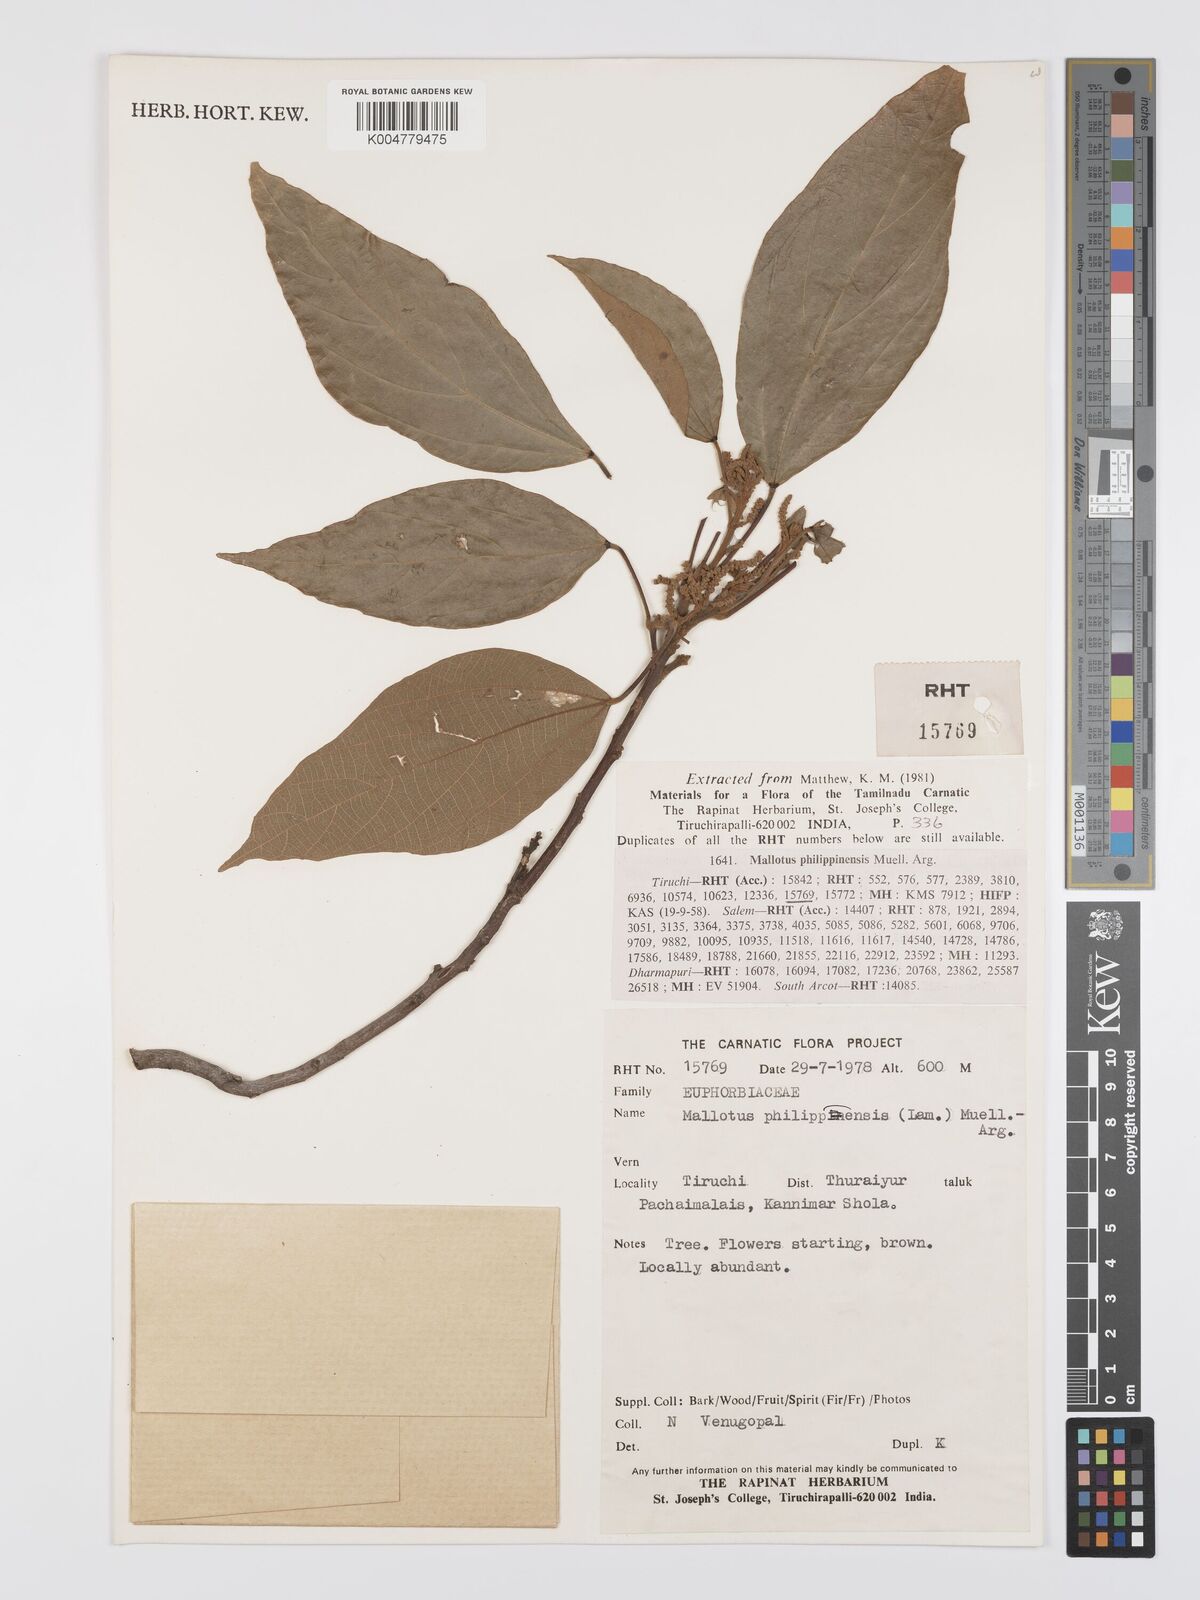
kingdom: Plantae
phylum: Tracheophyta
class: Magnoliopsida
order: Malpighiales
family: Euphorbiaceae
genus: Mallotus
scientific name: Mallotus philippensis
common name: Kamala tree
